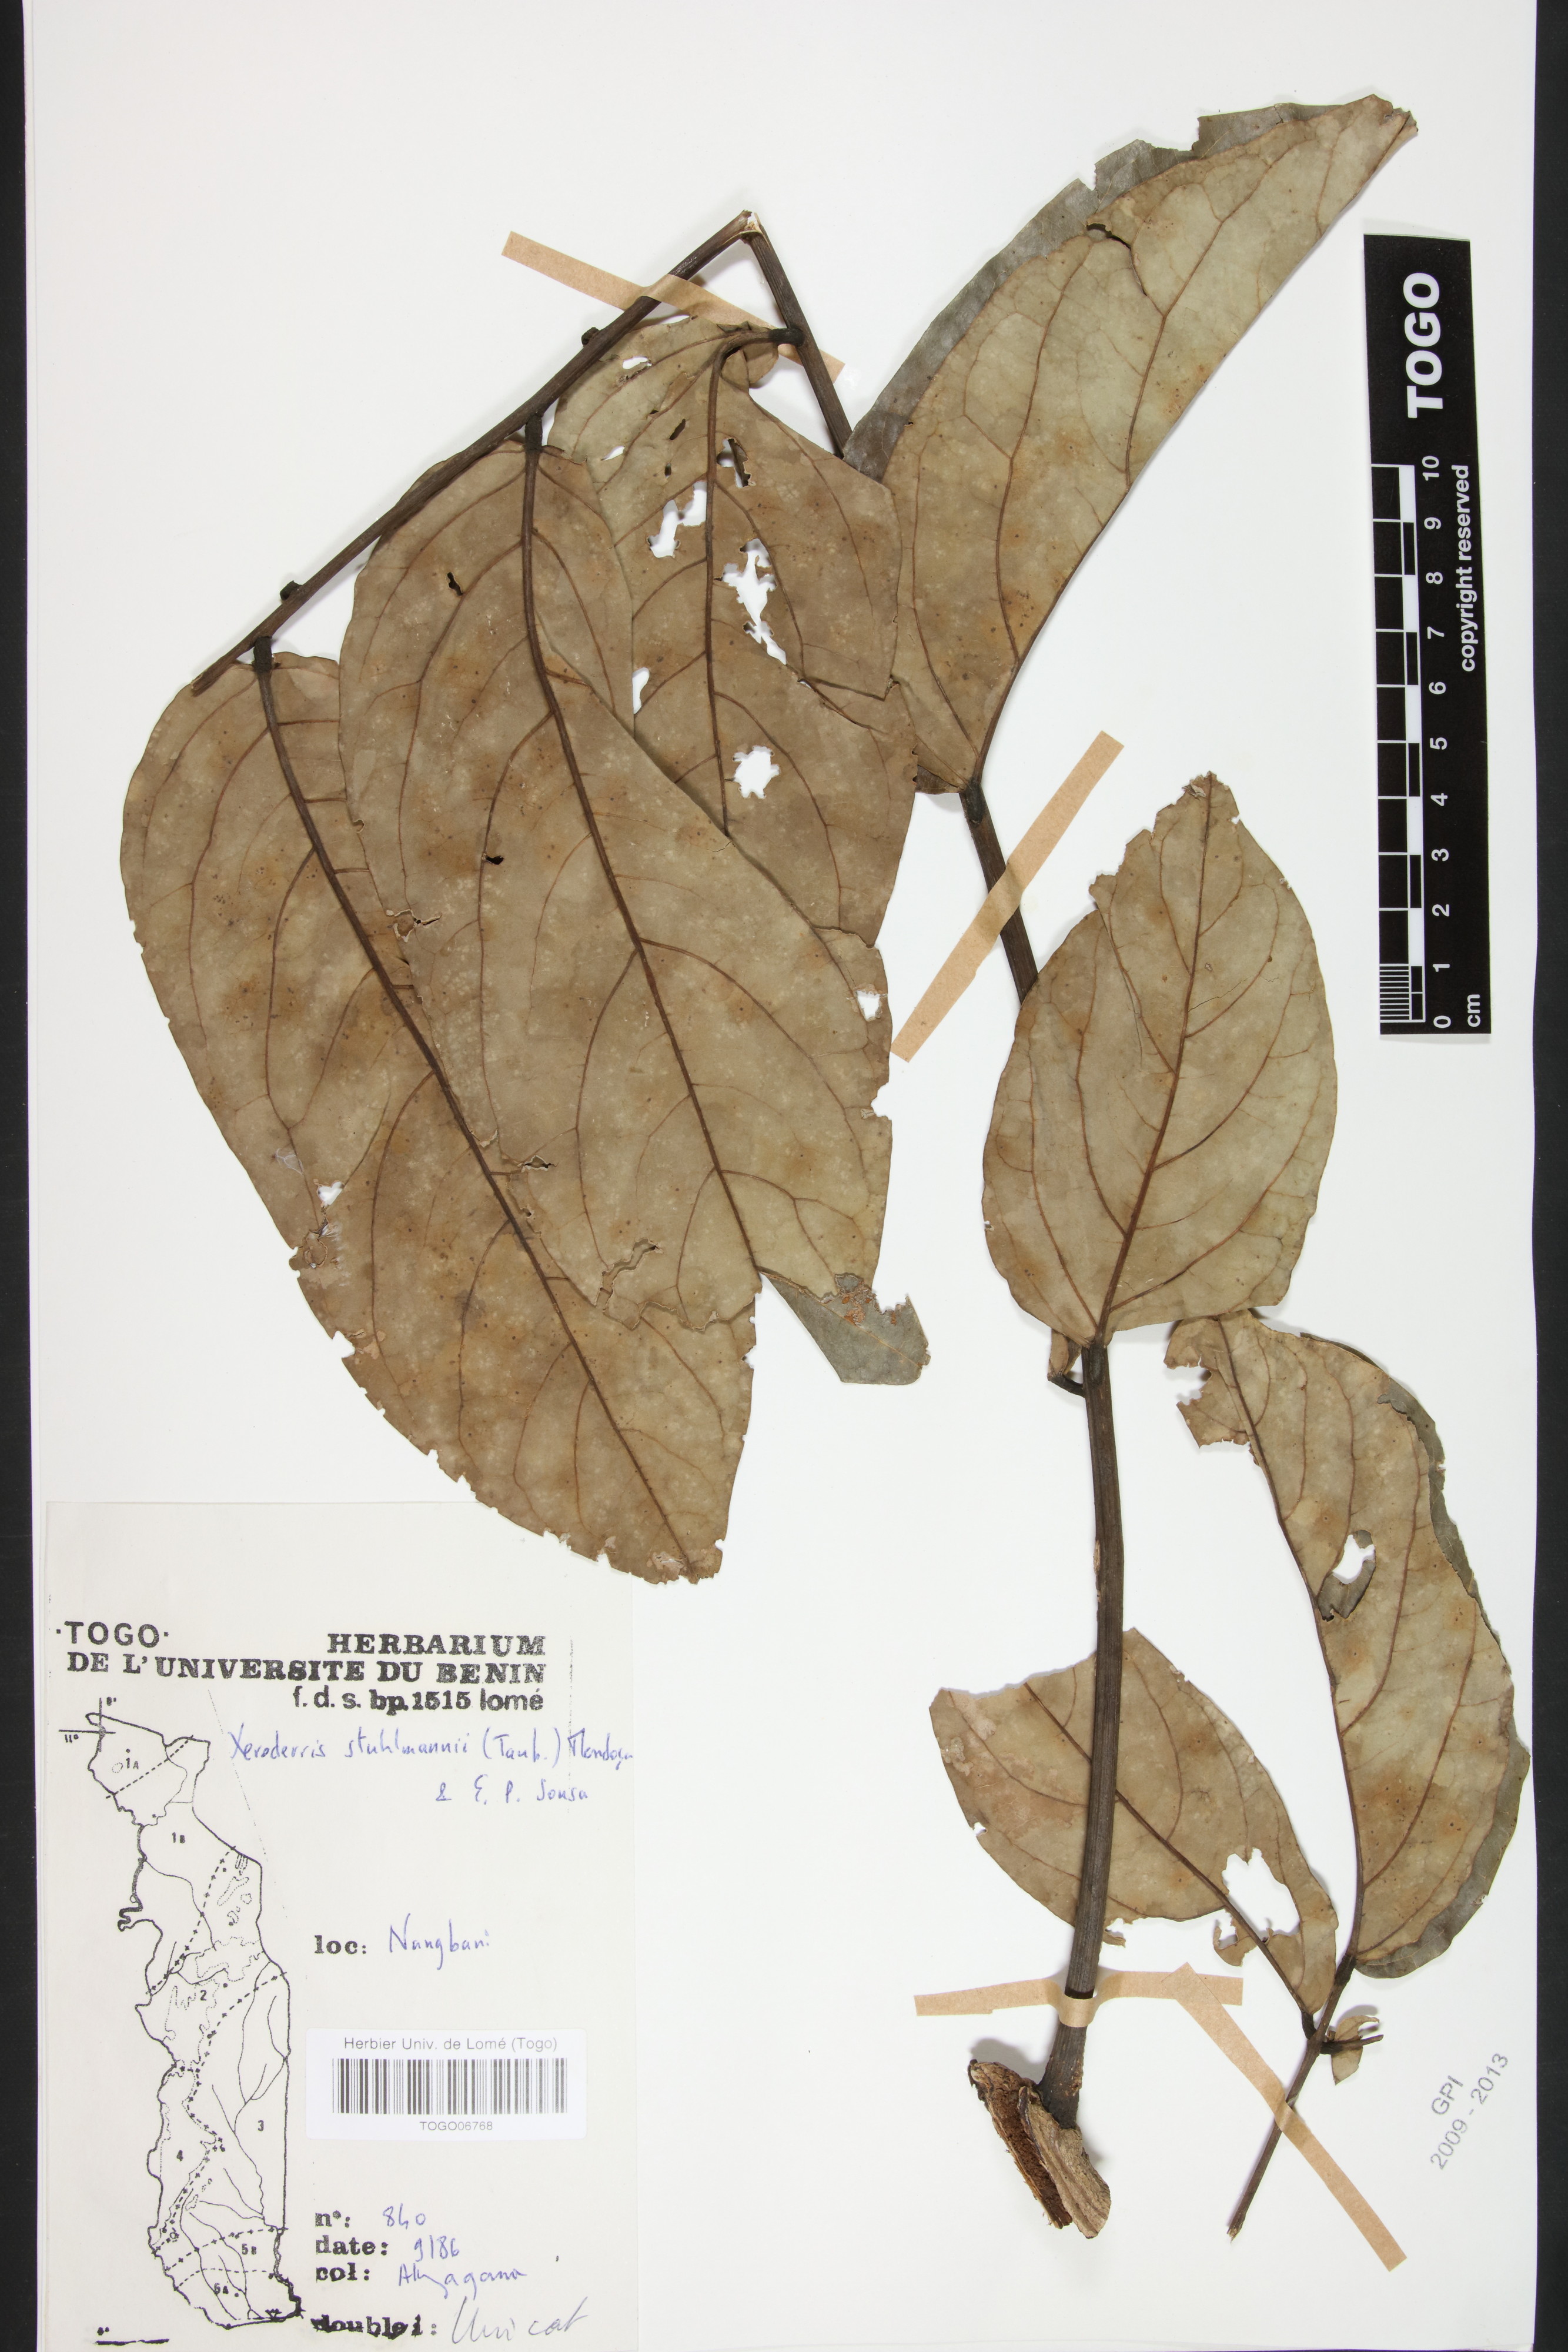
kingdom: Plantae
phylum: Tracheophyta
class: Magnoliopsida
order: Fabales
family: Fabaceae
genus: Aganope
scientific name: Aganope stuhlmannii
